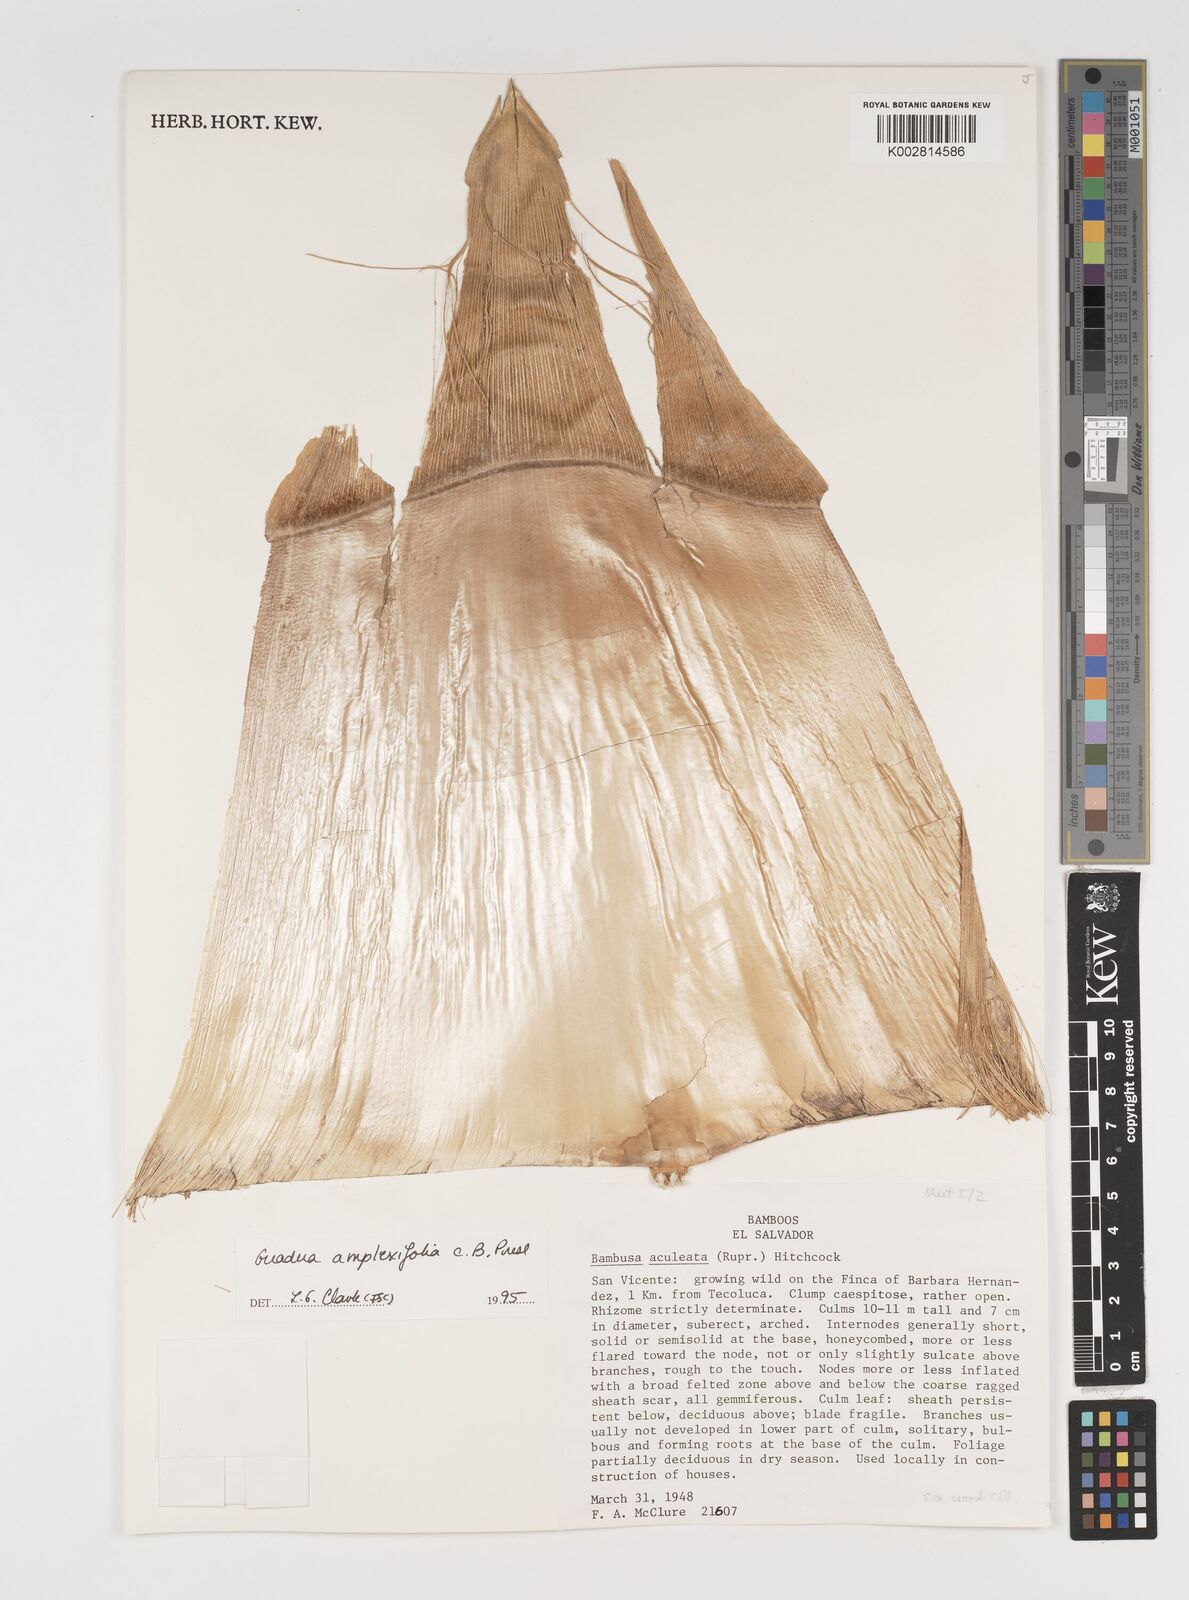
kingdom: Plantae
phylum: Tracheophyta
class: Liliopsida
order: Poales
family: Poaceae
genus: Guadua
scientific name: Guadua amplexifolia
